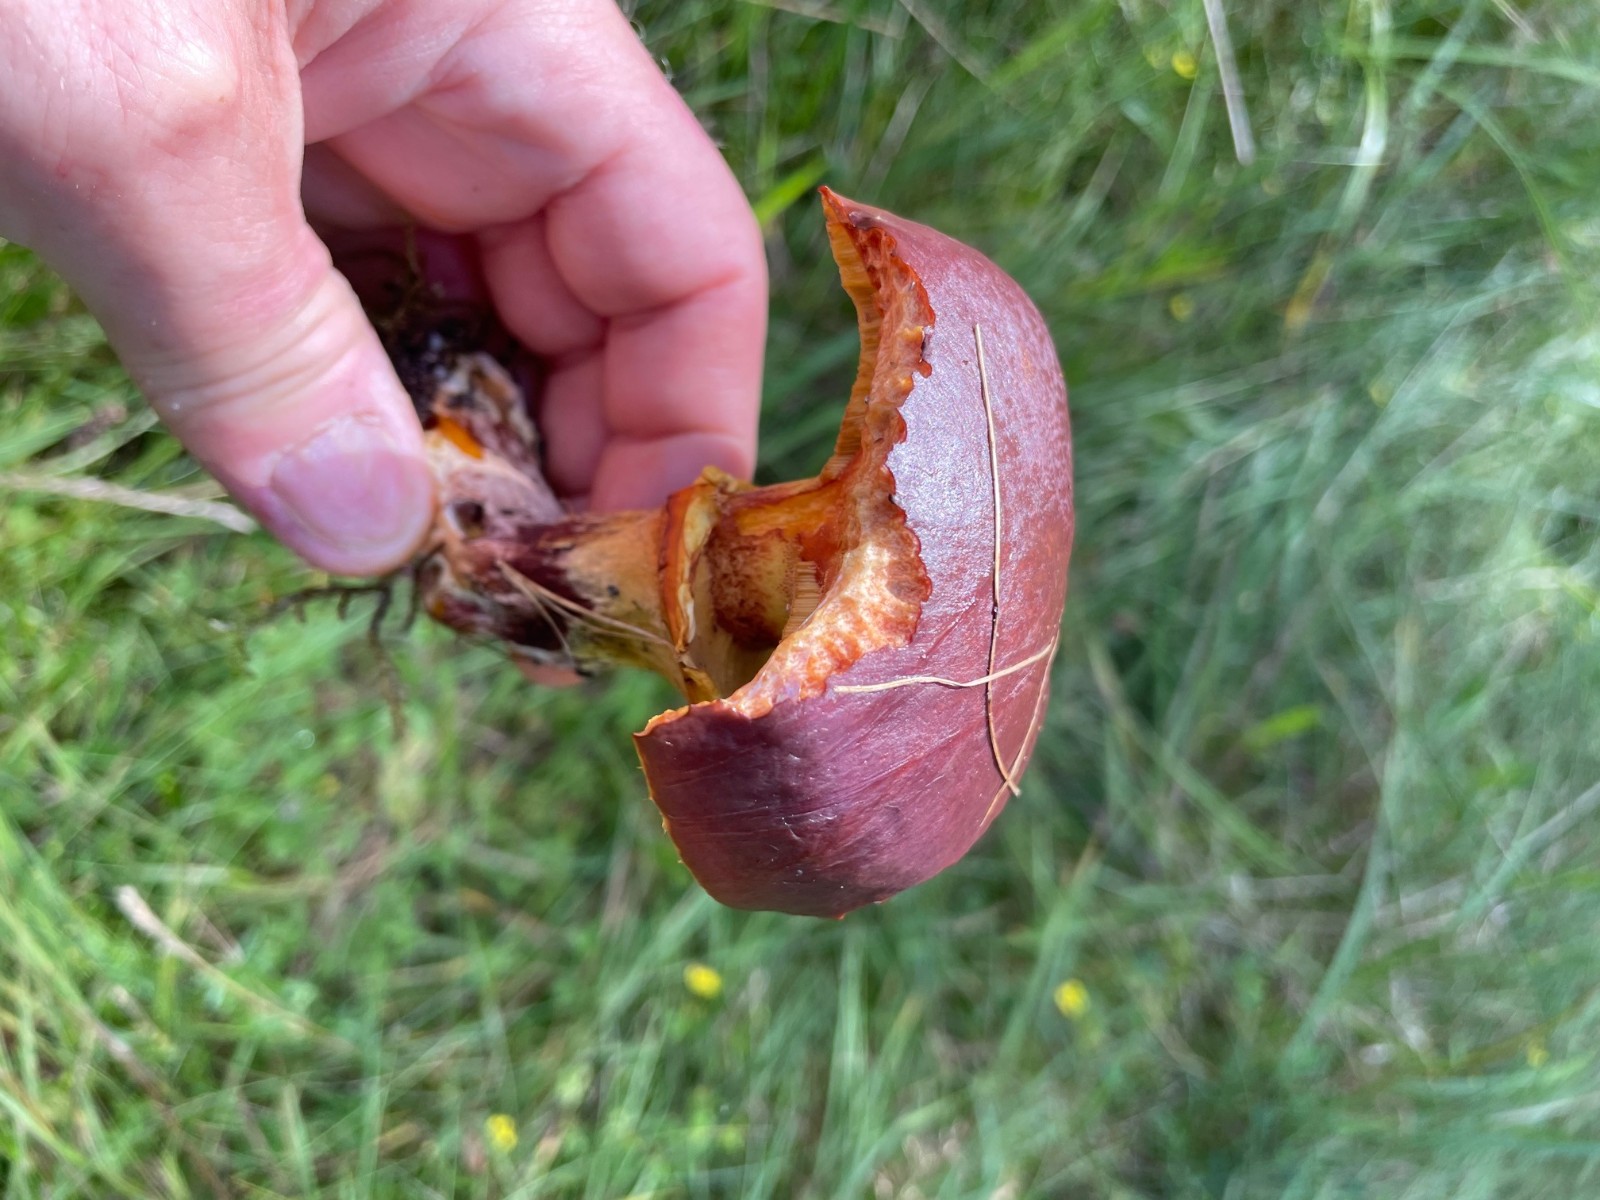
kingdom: Fungi
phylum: Basidiomycota
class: Agaricomycetes
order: Boletales
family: Suillaceae
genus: Suillus
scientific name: Suillus grevillei
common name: Larch bolete
